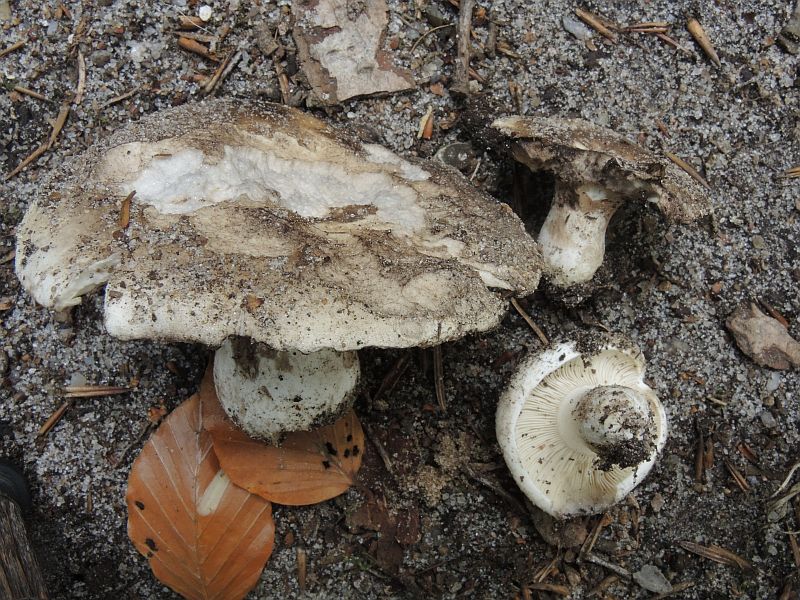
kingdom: Fungi
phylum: Basidiomycota
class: Agaricomycetes
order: Russulales
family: Russulaceae
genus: Russula
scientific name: Russula acrifolia
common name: skarpbladet skørhat
